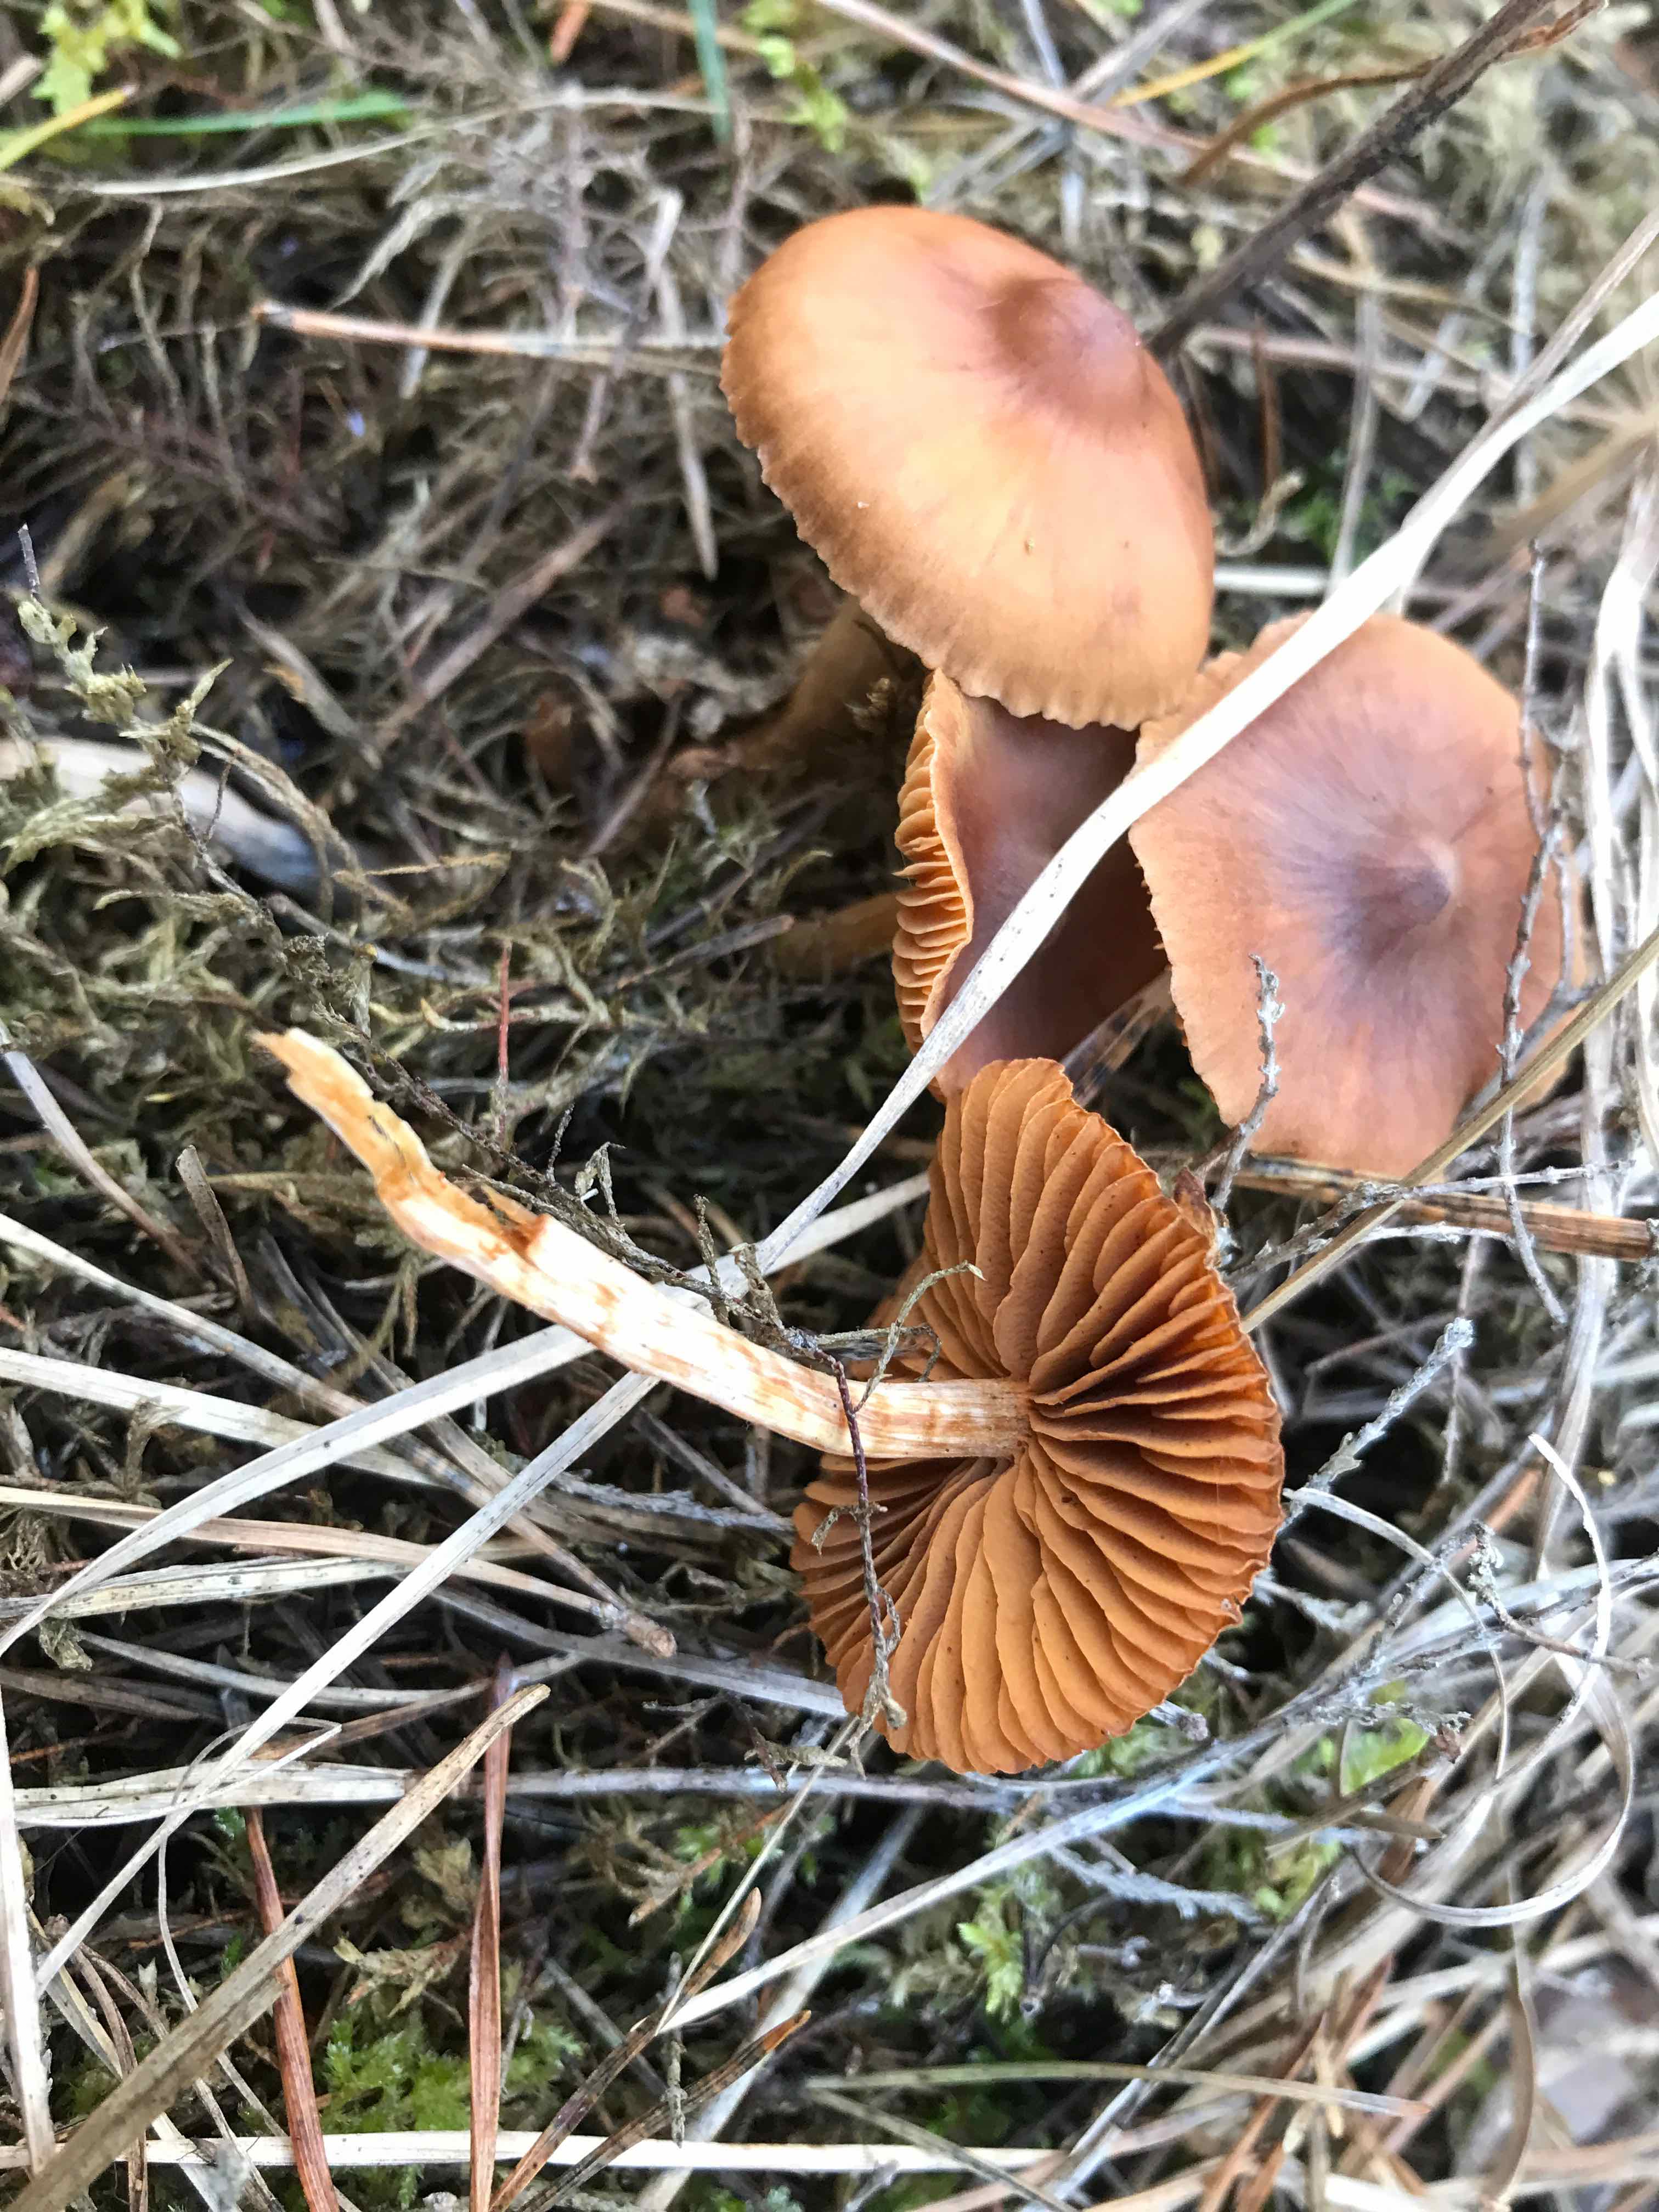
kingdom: Fungi
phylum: Basidiomycota
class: Agaricomycetes
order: Agaricales
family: Cortinariaceae
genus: Cortinarius
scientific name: Cortinarius
